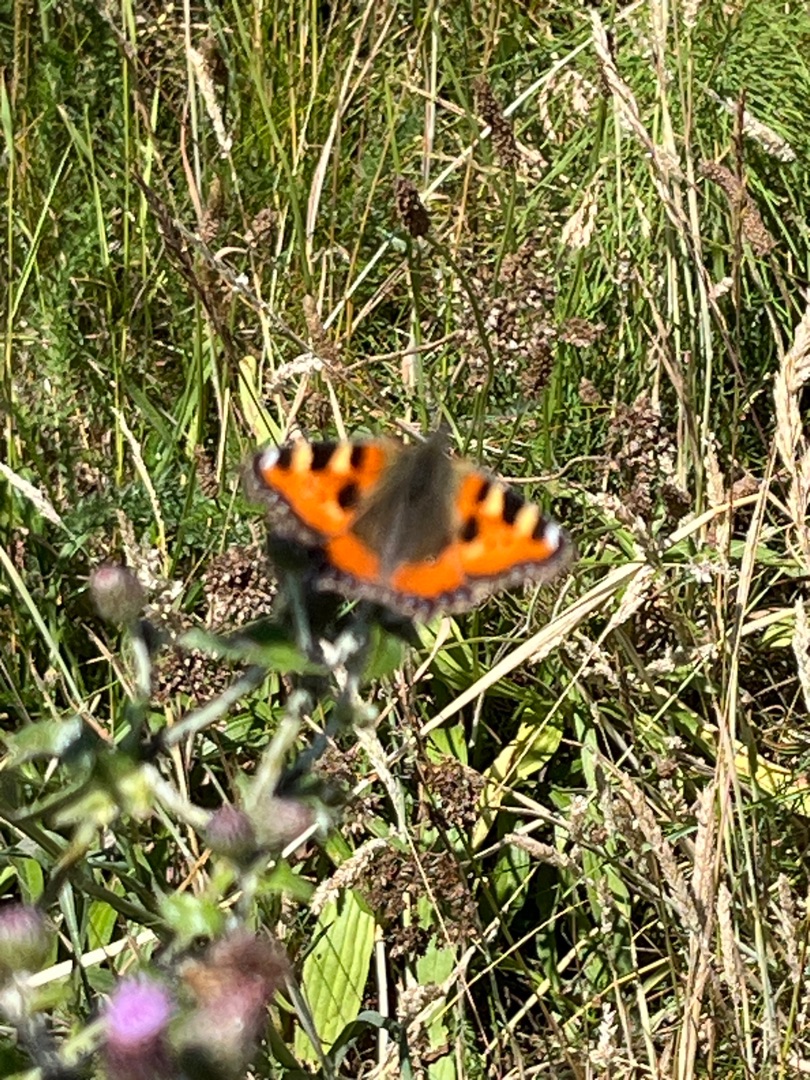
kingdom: Animalia
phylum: Arthropoda
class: Insecta
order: Lepidoptera
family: Nymphalidae
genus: Aglais
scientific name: Aglais urticae
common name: Nældens takvinge
